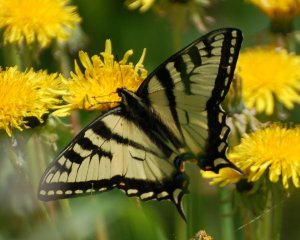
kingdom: Animalia
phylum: Arthropoda
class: Insecta
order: Lepidoptera
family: Papilionidae
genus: Pterourus
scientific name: Pterourus canadensis
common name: Canadian Tiger Swallowtail
